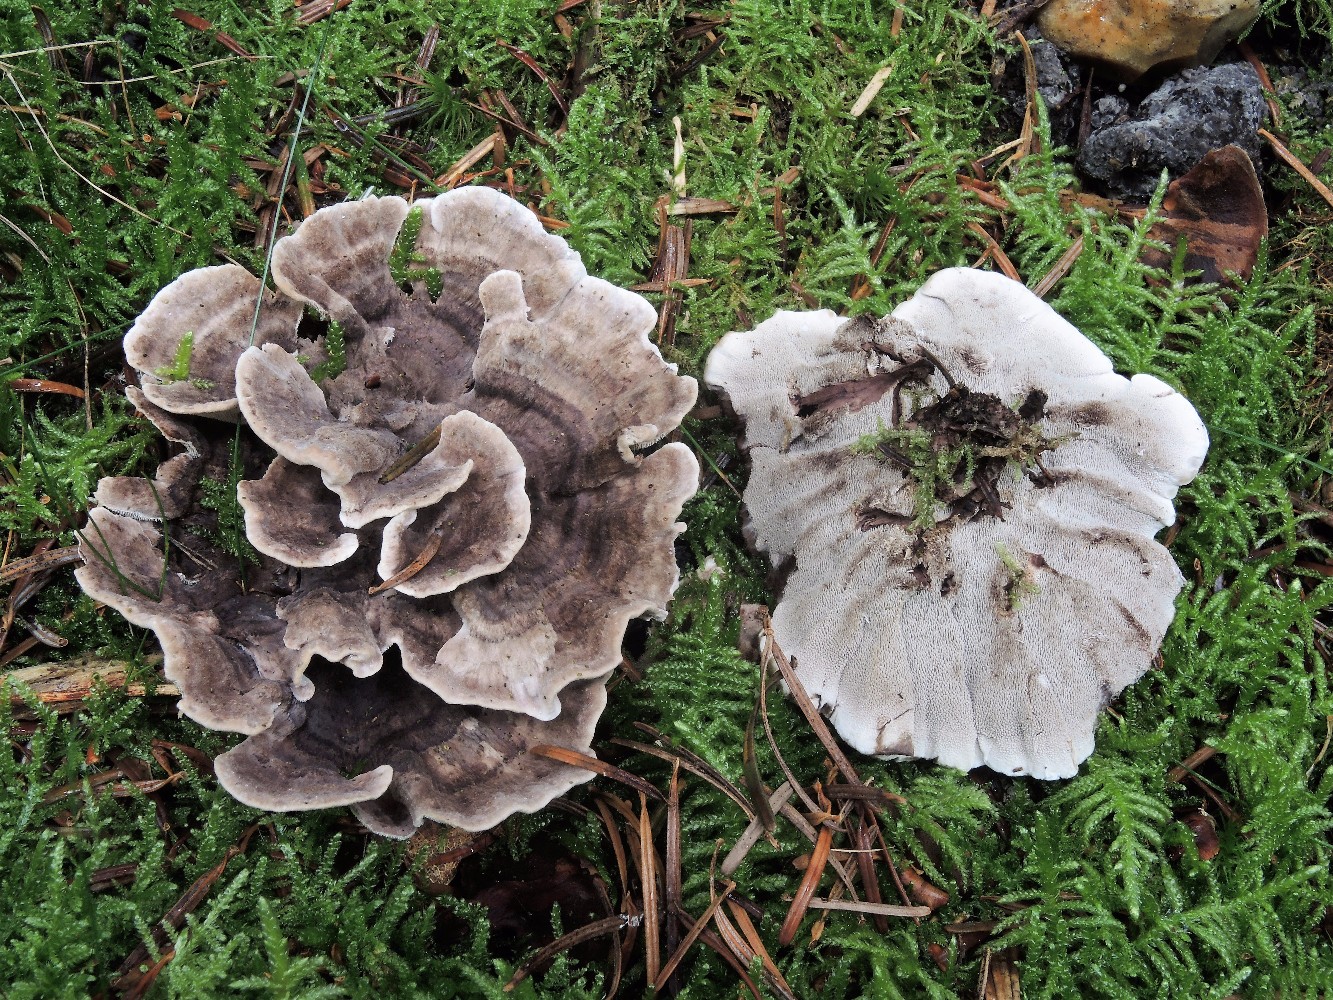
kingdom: Fungi
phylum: Basidiomycota
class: Agaricomycetes
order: Thelephorales
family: Thelephoraceae
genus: Phellodon
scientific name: Phellodon tomentosus
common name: vellugtende duftpigsvamp
